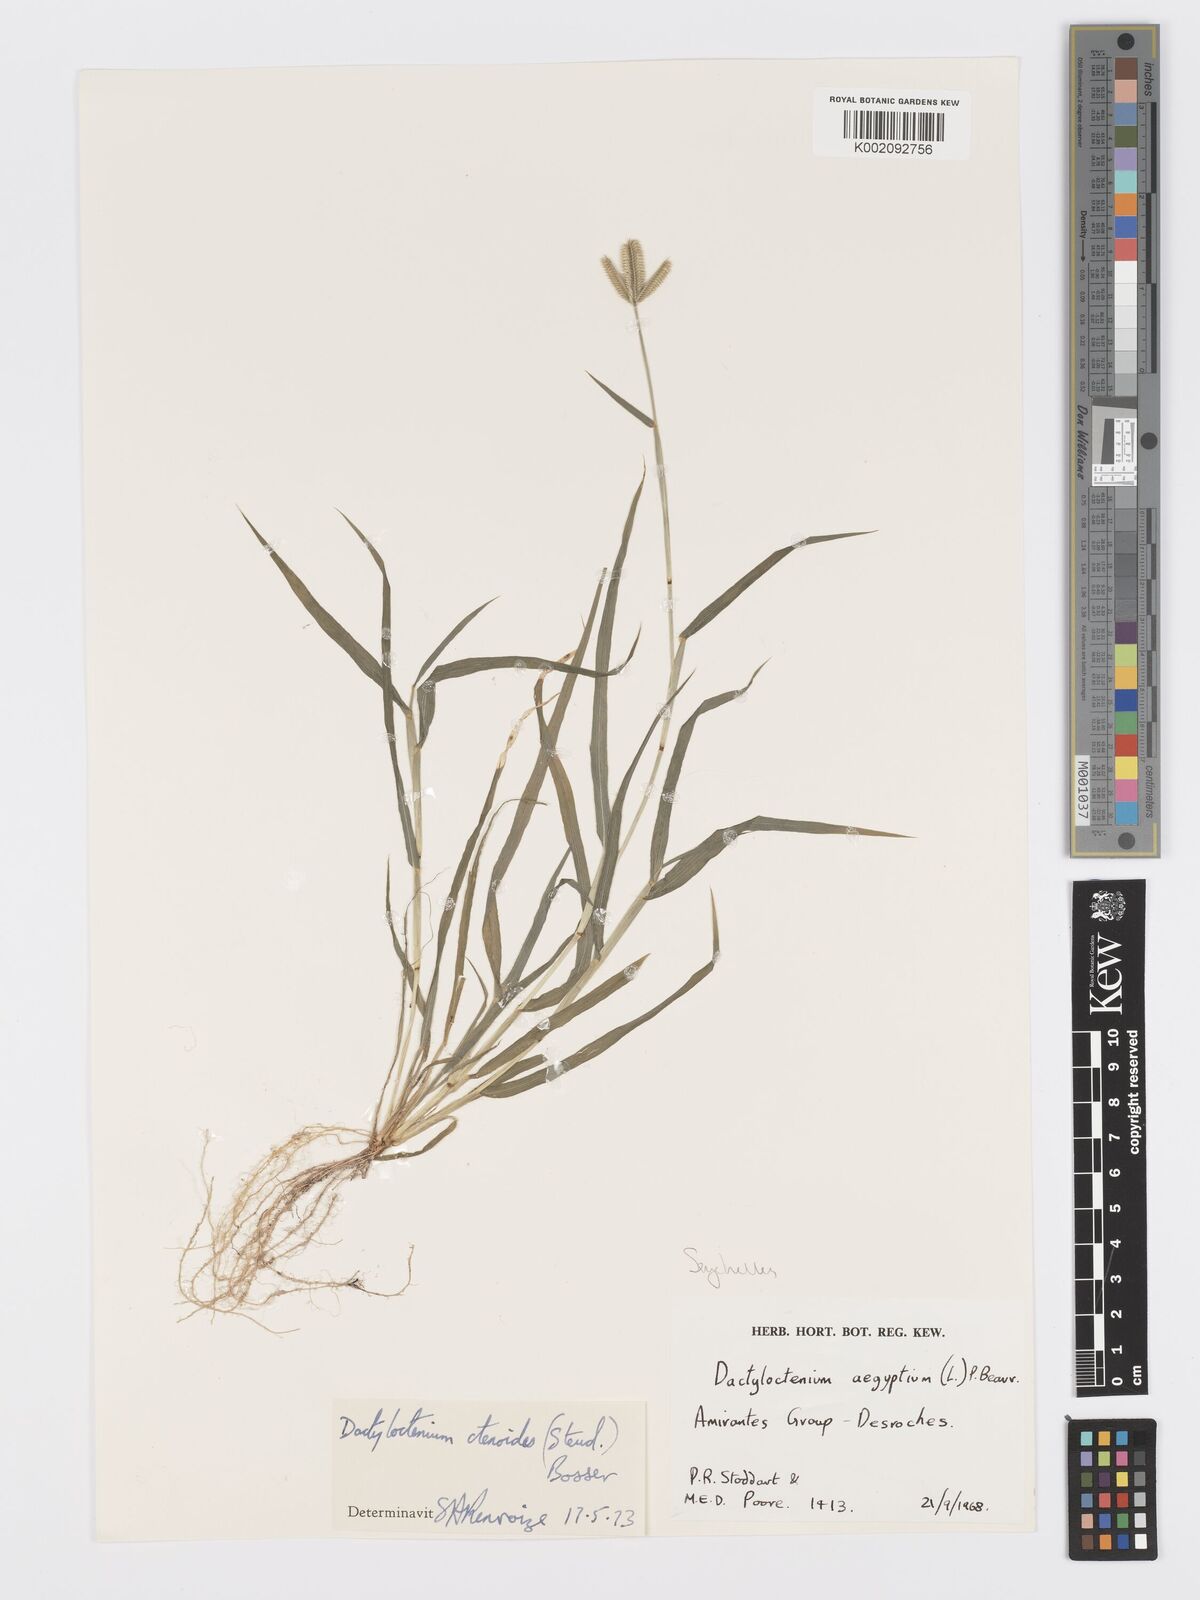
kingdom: Plantae
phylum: Tracheophyta
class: Liliopsida
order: Poales
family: Poaceae
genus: Dactyloctenium
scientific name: Dactyloctenium ctenoides
